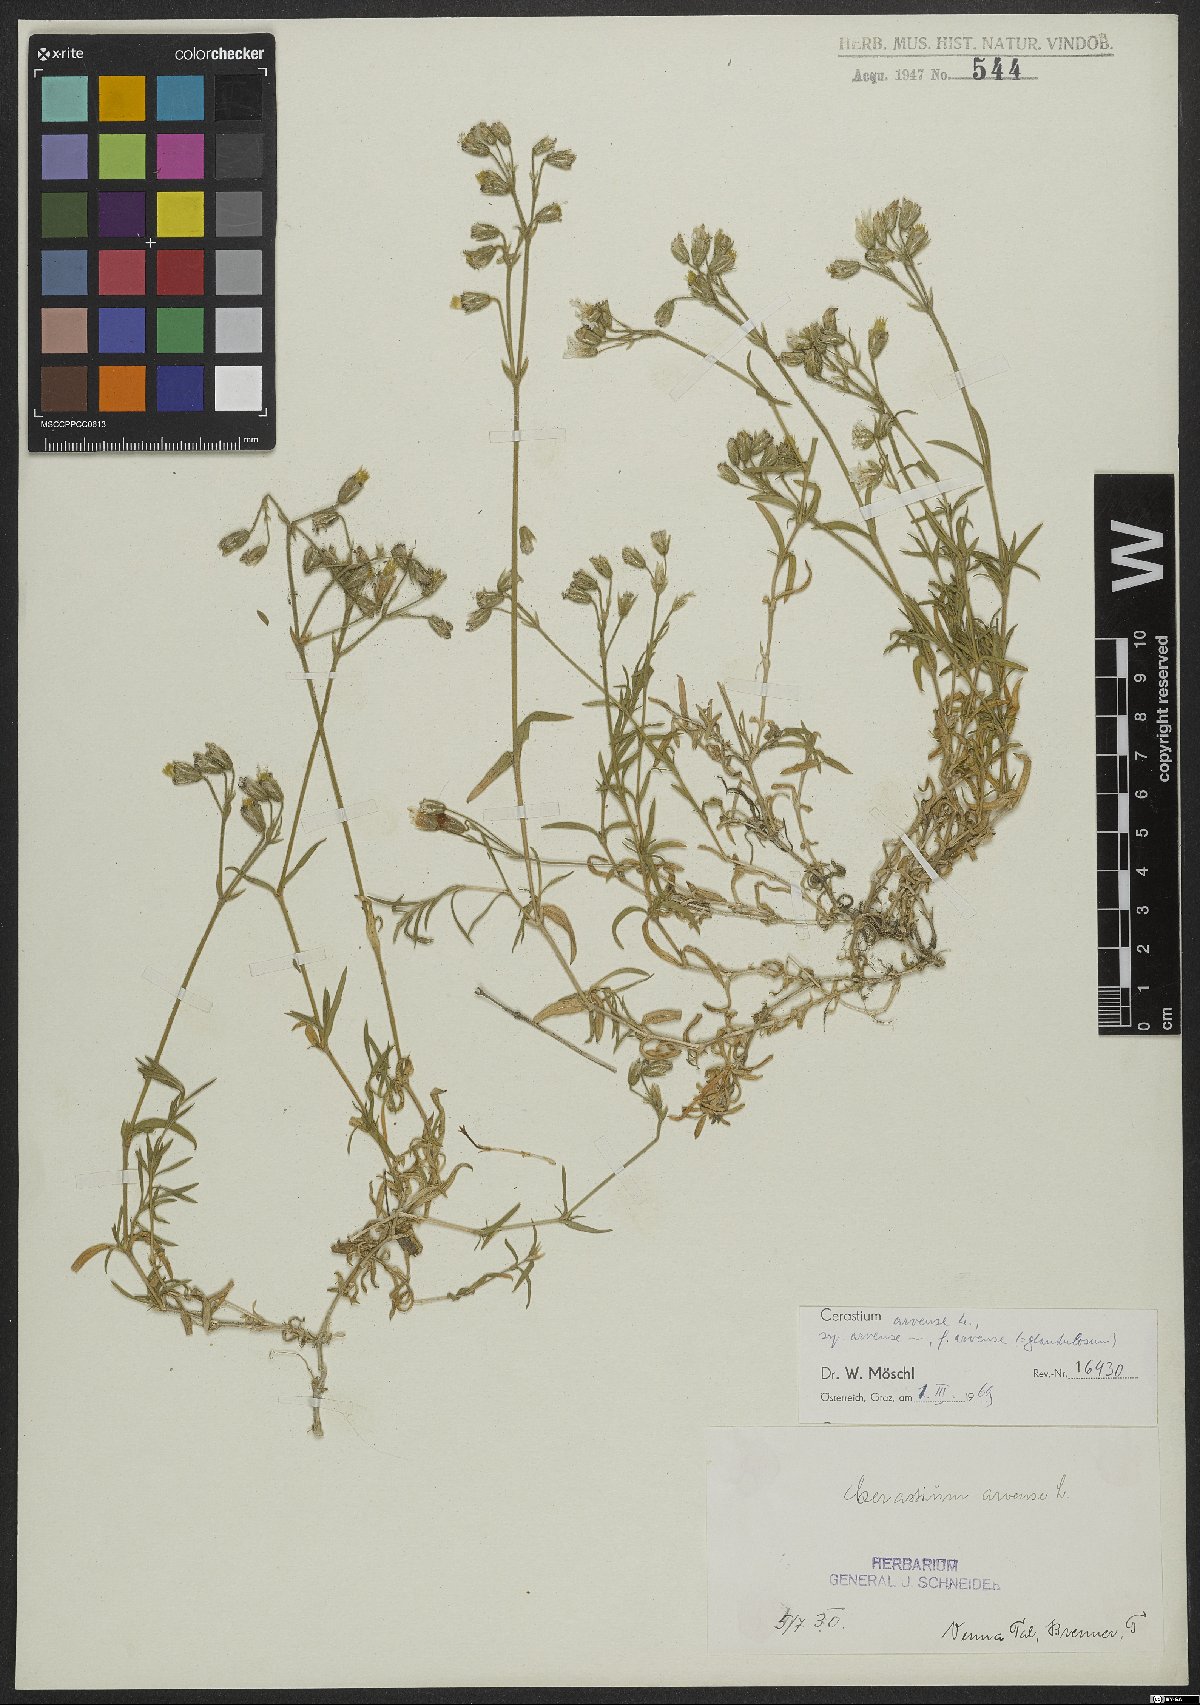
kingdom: Plantae
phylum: Tracheophyta
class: Magnoliopsida
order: Caryophyllales
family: Caryophyllaceae
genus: Cerastium
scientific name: Cerastium arvense
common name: Field mouse-ear
